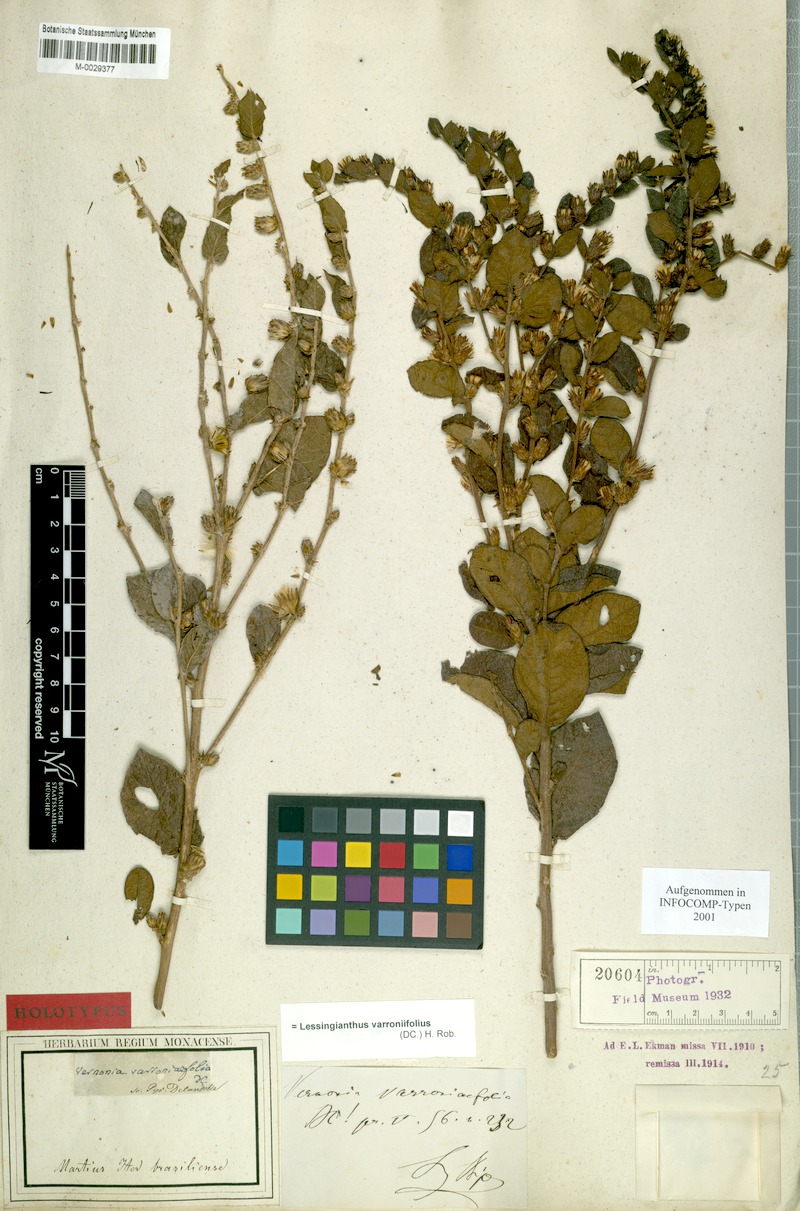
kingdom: Plantae
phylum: Tracheophyta
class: Magnoliopsida
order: Asterales
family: Asteraceae
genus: Lessingianthus
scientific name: Lessingianthus varroniifolius
